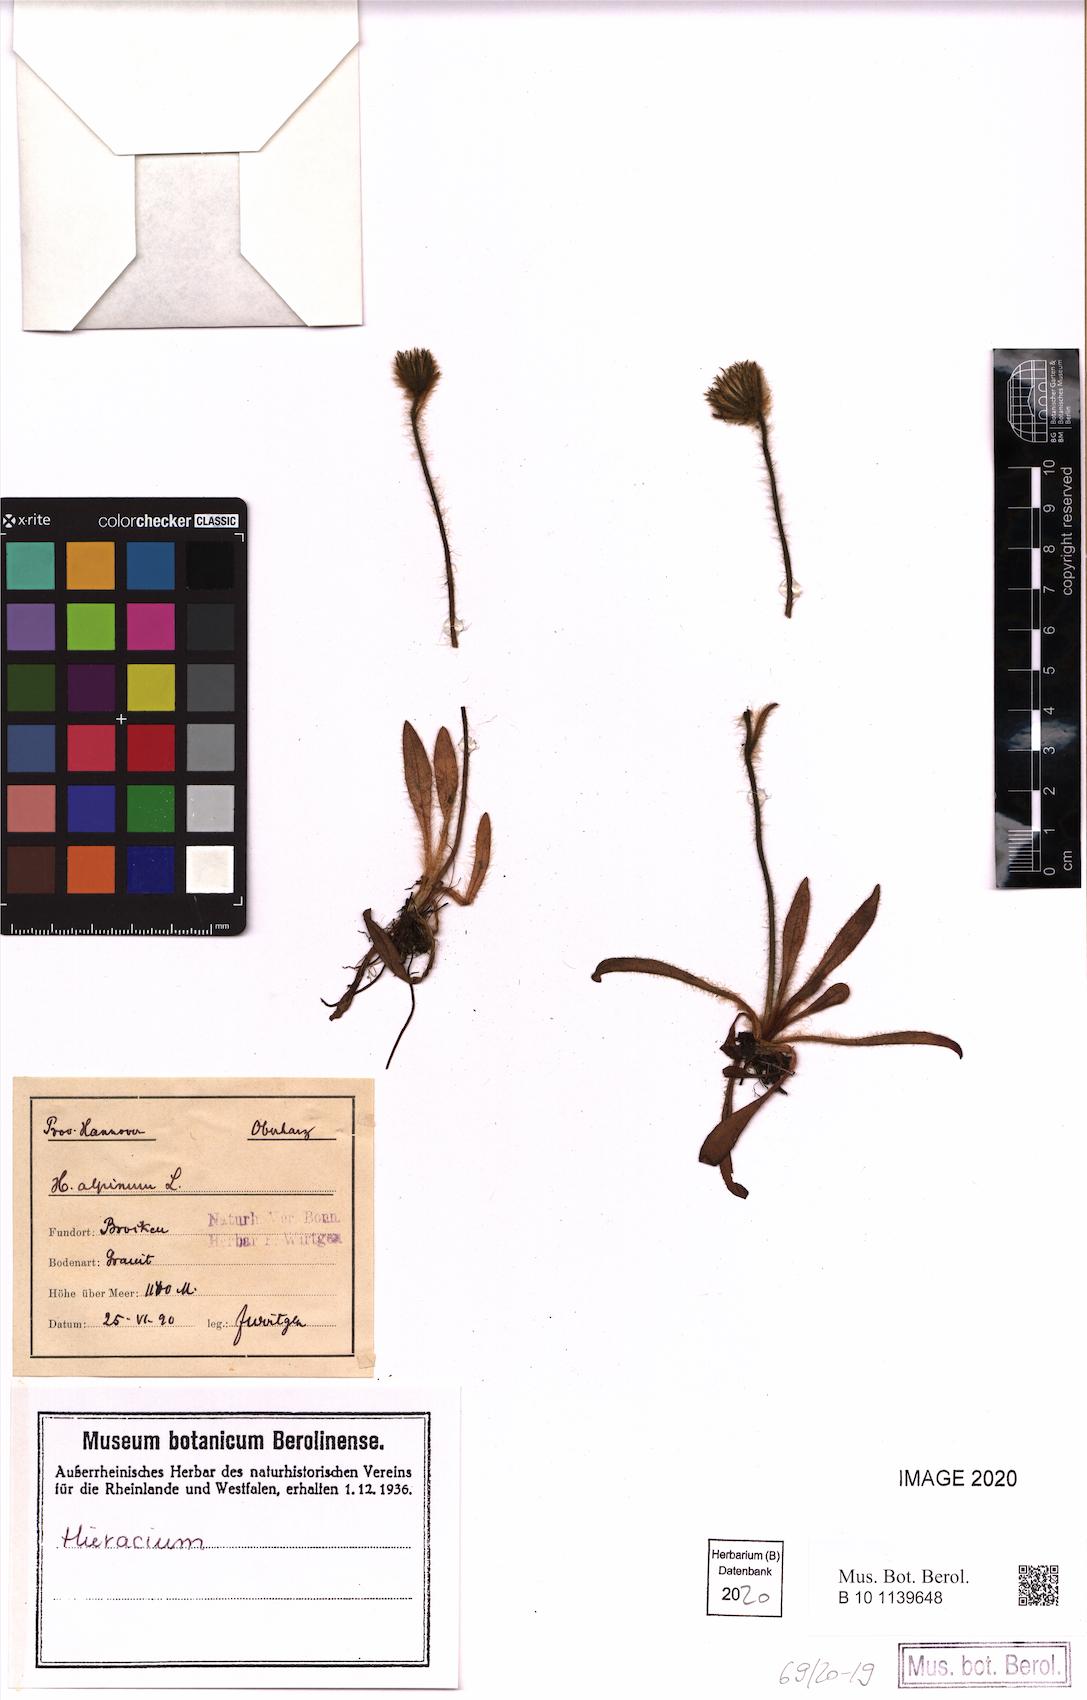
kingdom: Plantae
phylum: Tracheophyta
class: Magnoliopsida
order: Asterales
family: Asteraceae
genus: Hieracium
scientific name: Hieracium alpinum
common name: Alpine hawkweed
